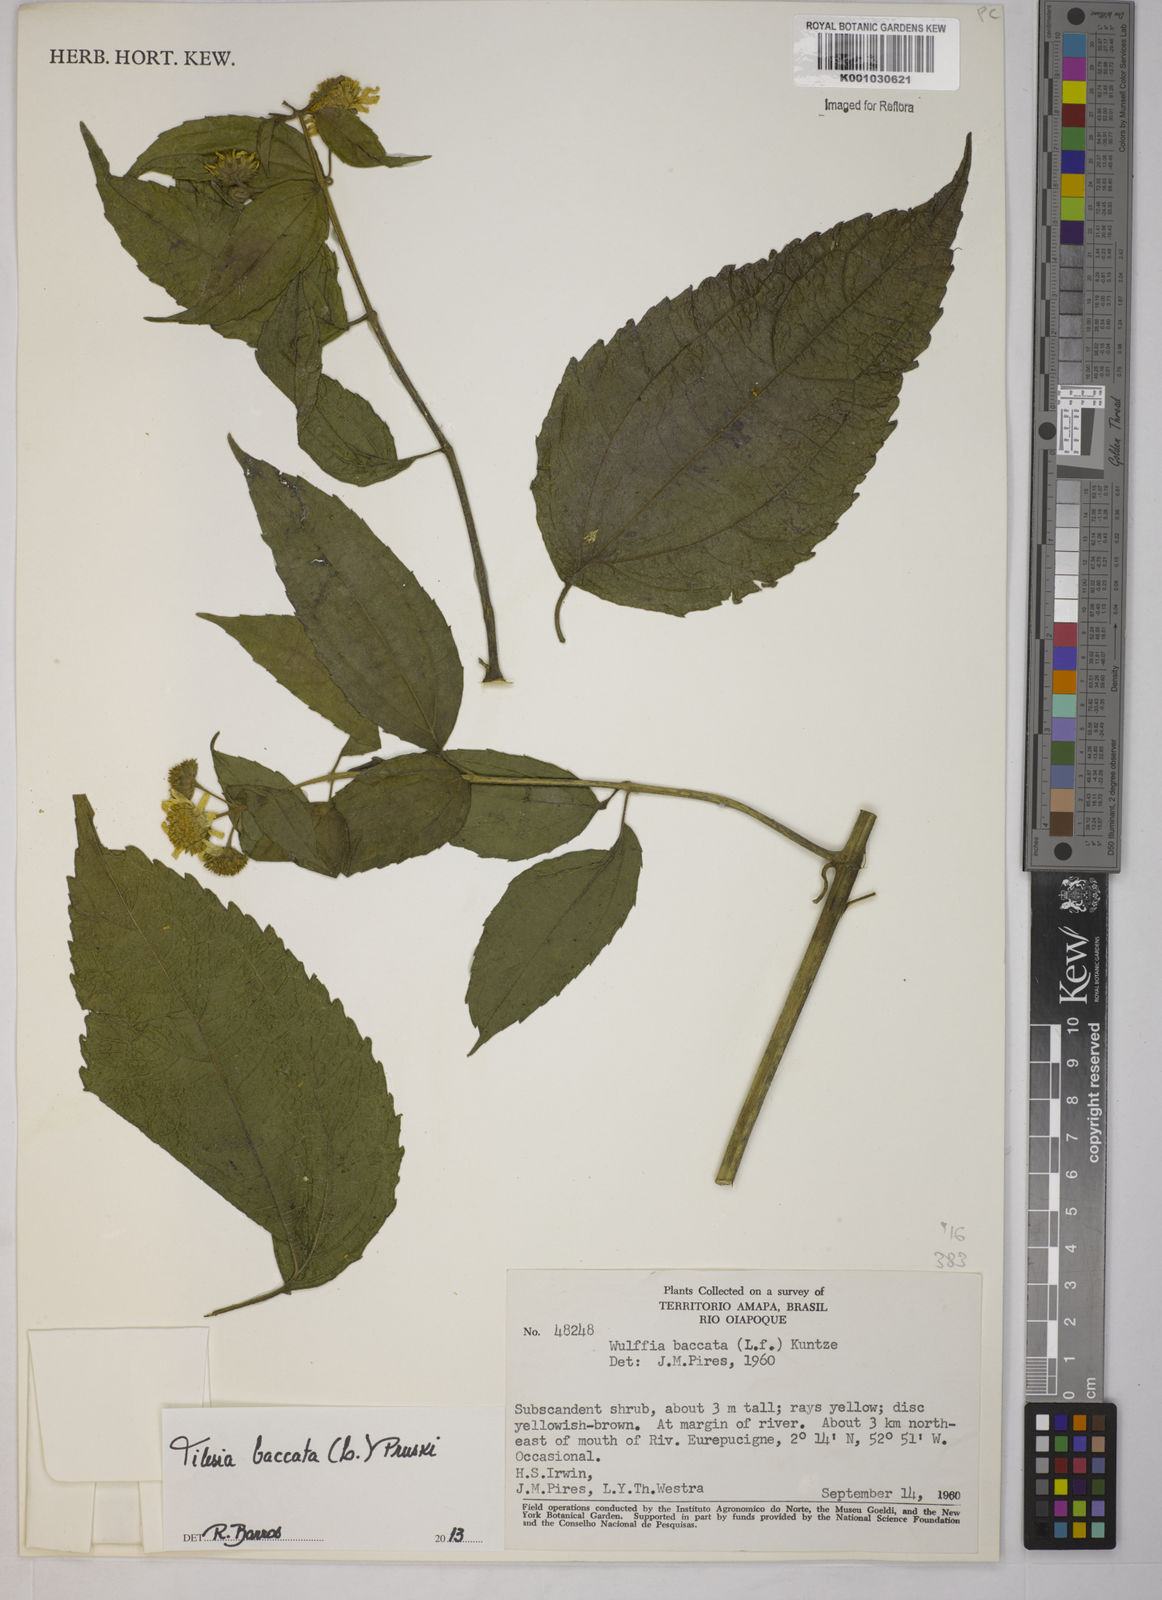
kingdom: Plantae
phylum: Tracheophyta
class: Magnoliopsida
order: Asterales
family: Asteraceae
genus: Tilesia
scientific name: Tilesia baccata
